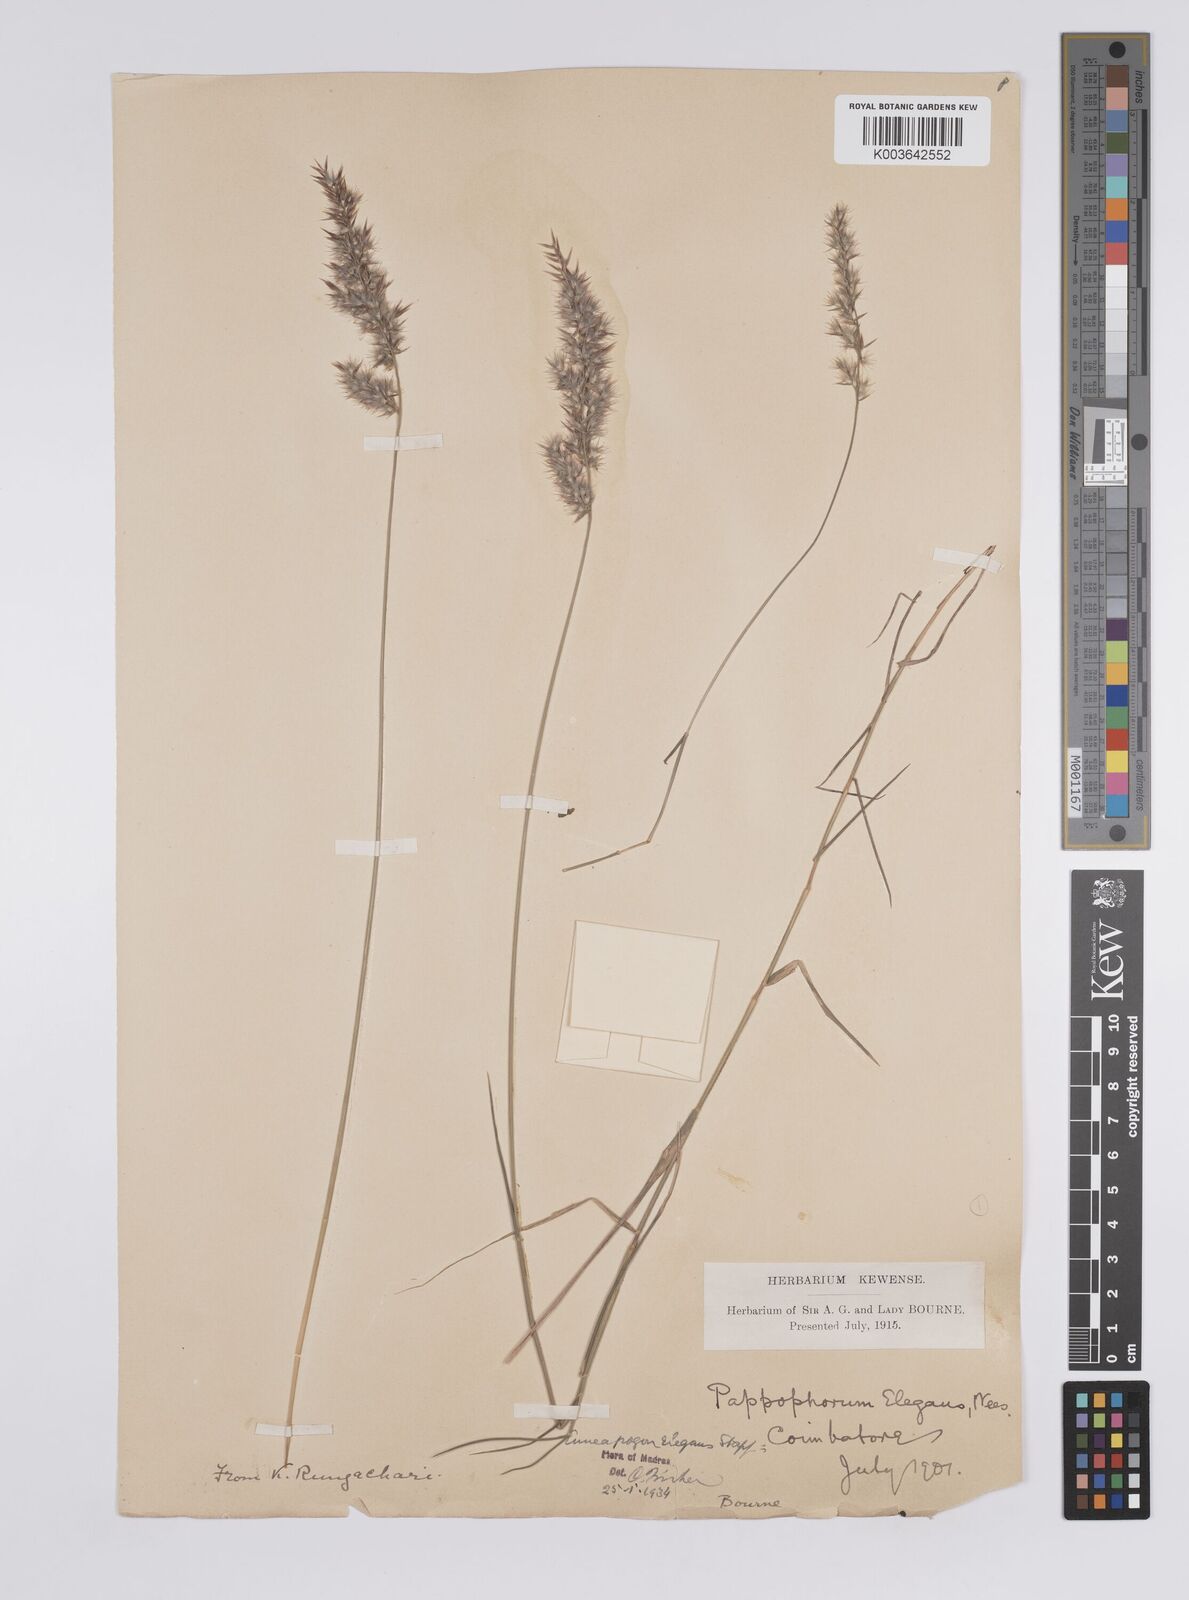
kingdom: Plantae
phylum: Tracheophyta
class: Liliopsida
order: Poales
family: Poaceae
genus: Enneapogon
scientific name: Enneapogon persicus
